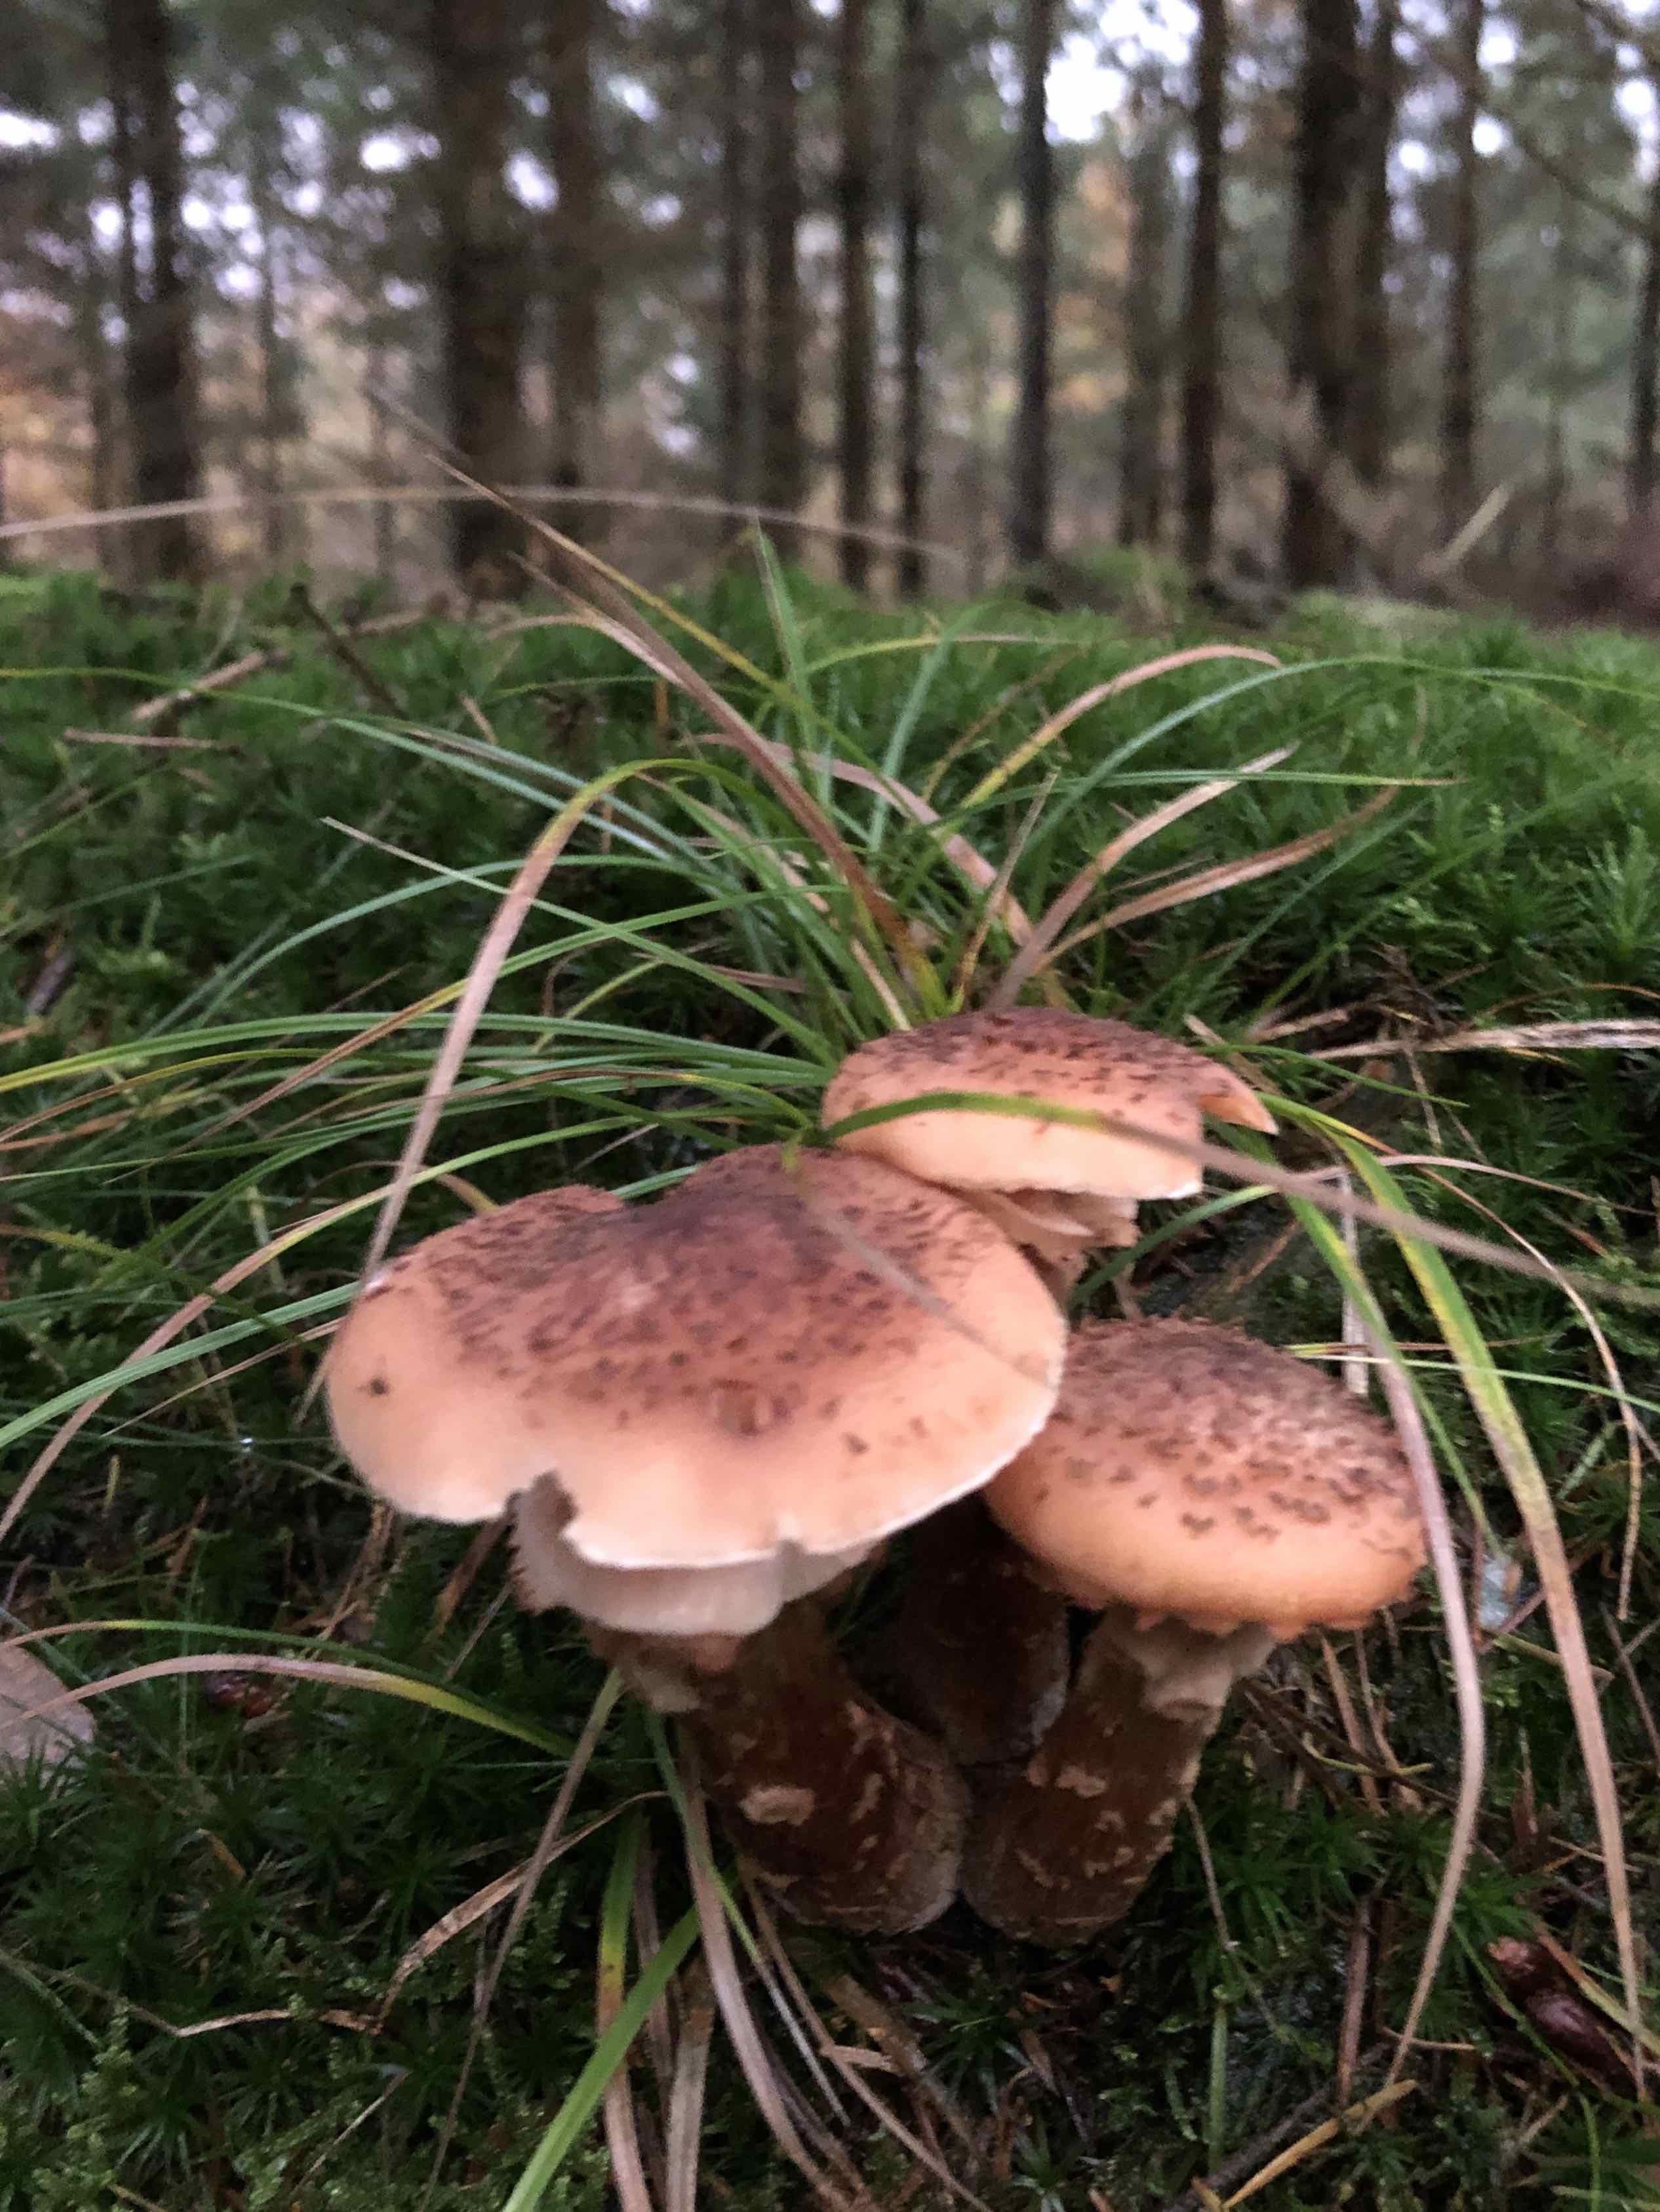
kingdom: Fungi
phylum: Basidiomycota
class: Agaricomycetes
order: Agaricales
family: Physalacriaceae
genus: Armillaria
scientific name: Armillaria ostoyae
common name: mørk honningsvamp
